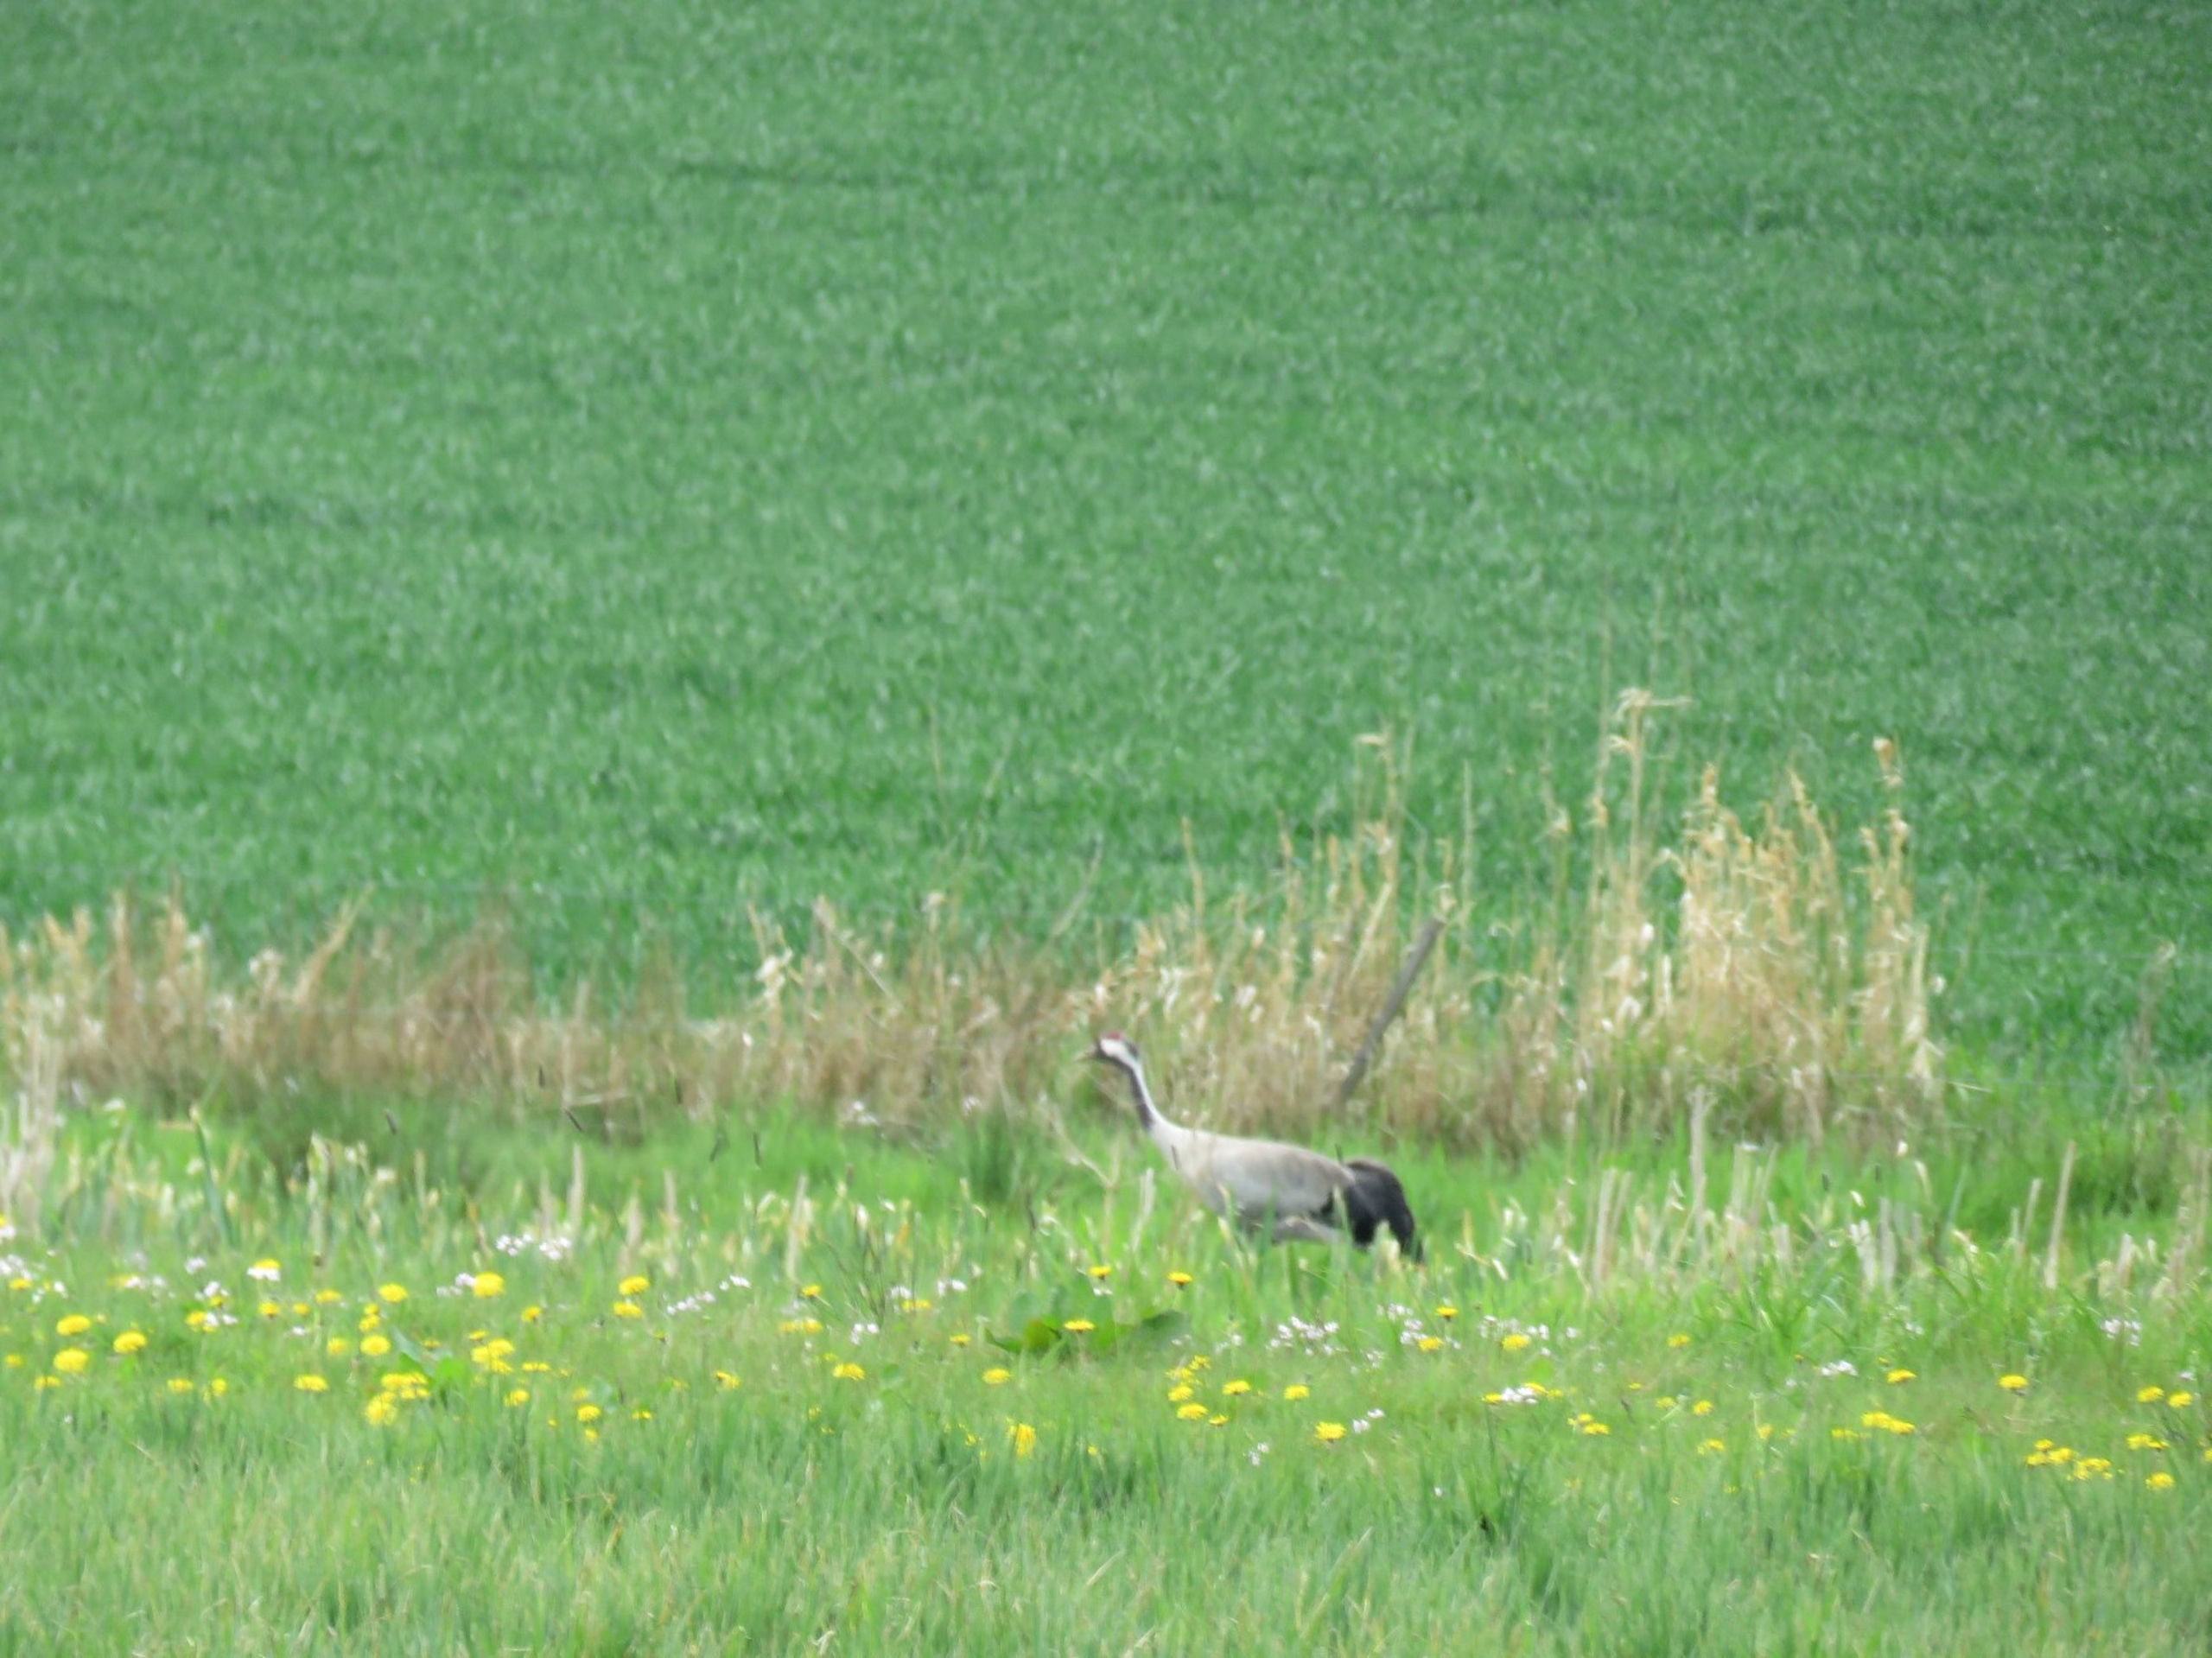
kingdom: Animalia
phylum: Chordata
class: Aves
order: Gruiformes
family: Gruidae
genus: Grus
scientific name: Grus grus
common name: Trane
